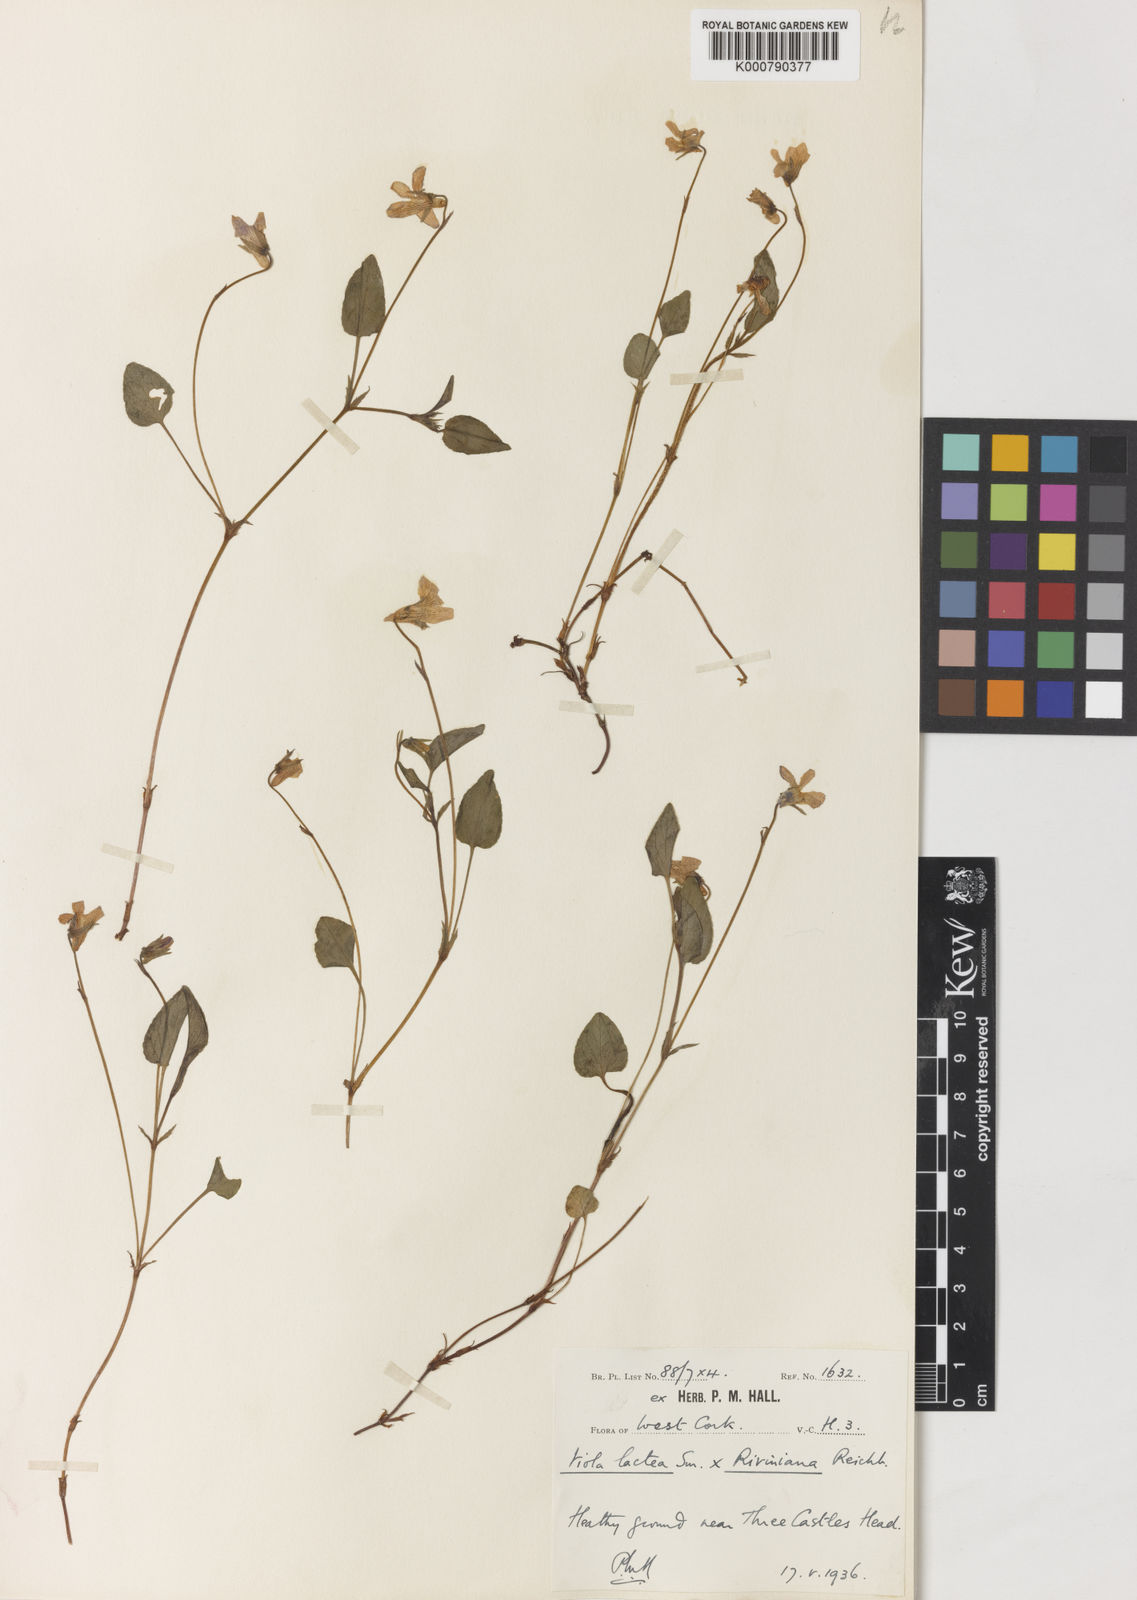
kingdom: Plantae
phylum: Tracheophyta
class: Magnoliopsida
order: Malpighiales
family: Violaceae
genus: Viola
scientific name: Viola lactea
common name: Pale dog-violet
